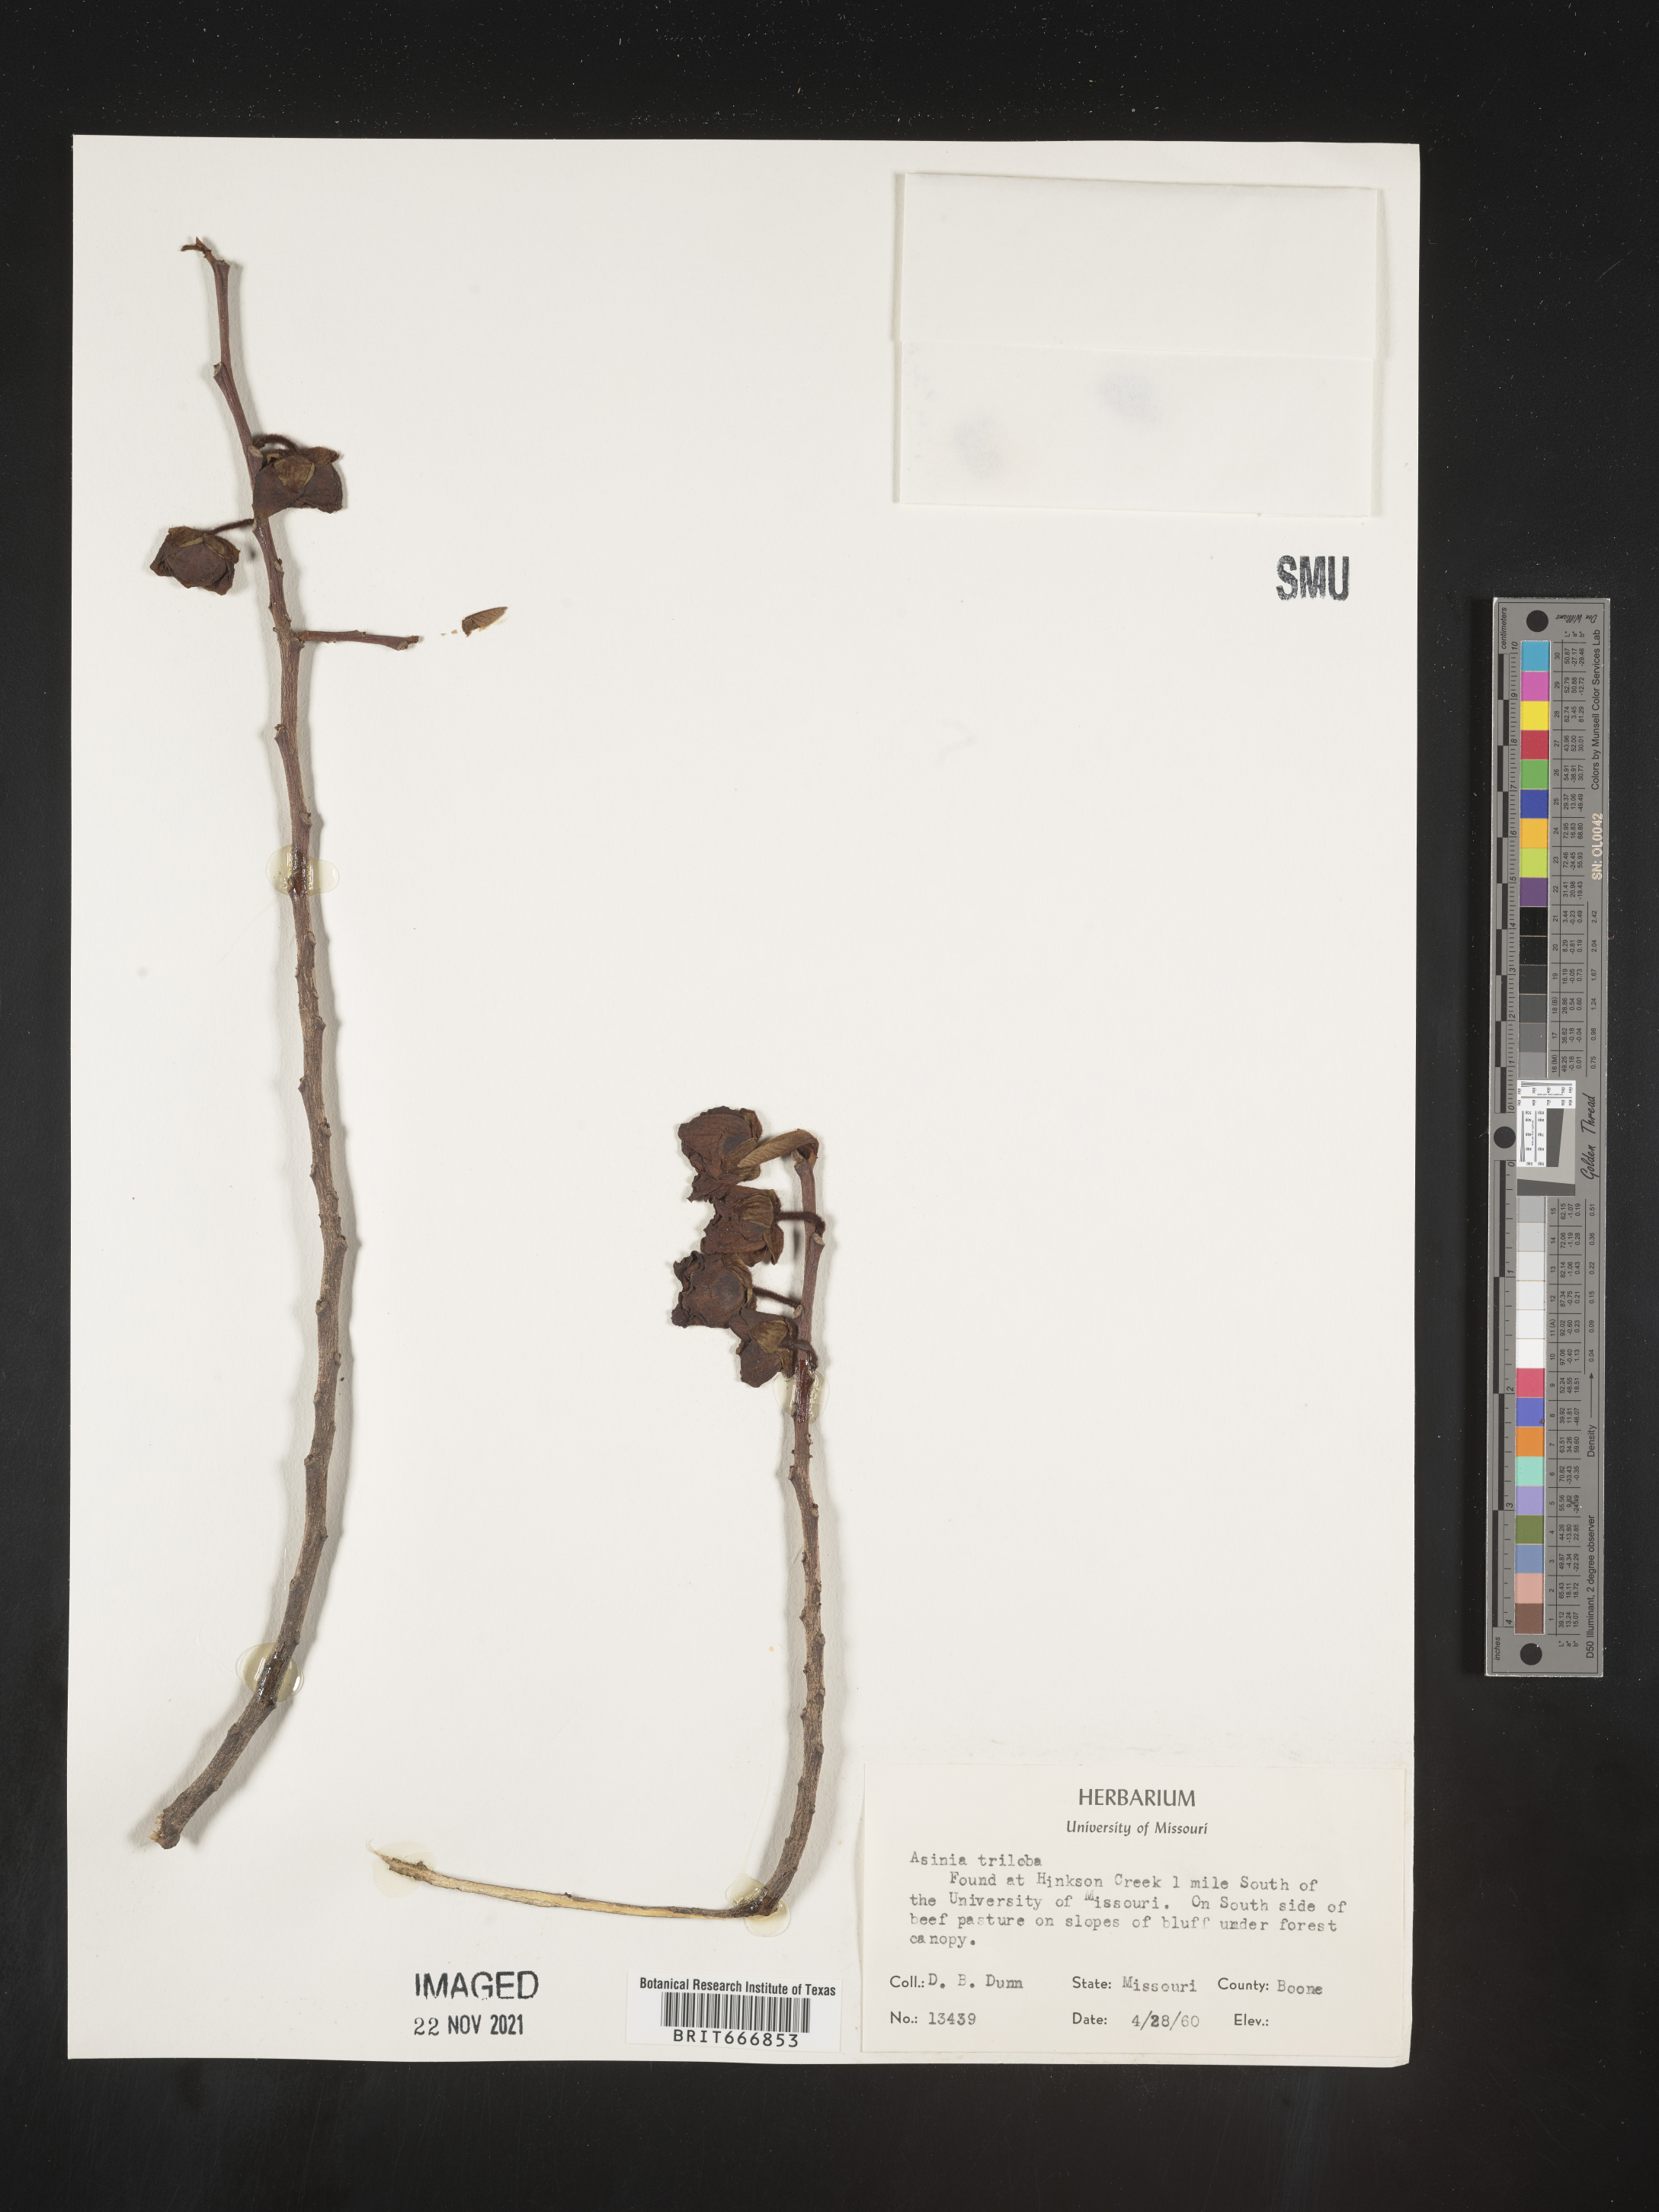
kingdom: Plantae
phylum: Tracheophyta
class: Magnoliopsida
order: Magnoliales
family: Annonaceae
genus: Asimina
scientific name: Asimina triloba
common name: Dog-banana
